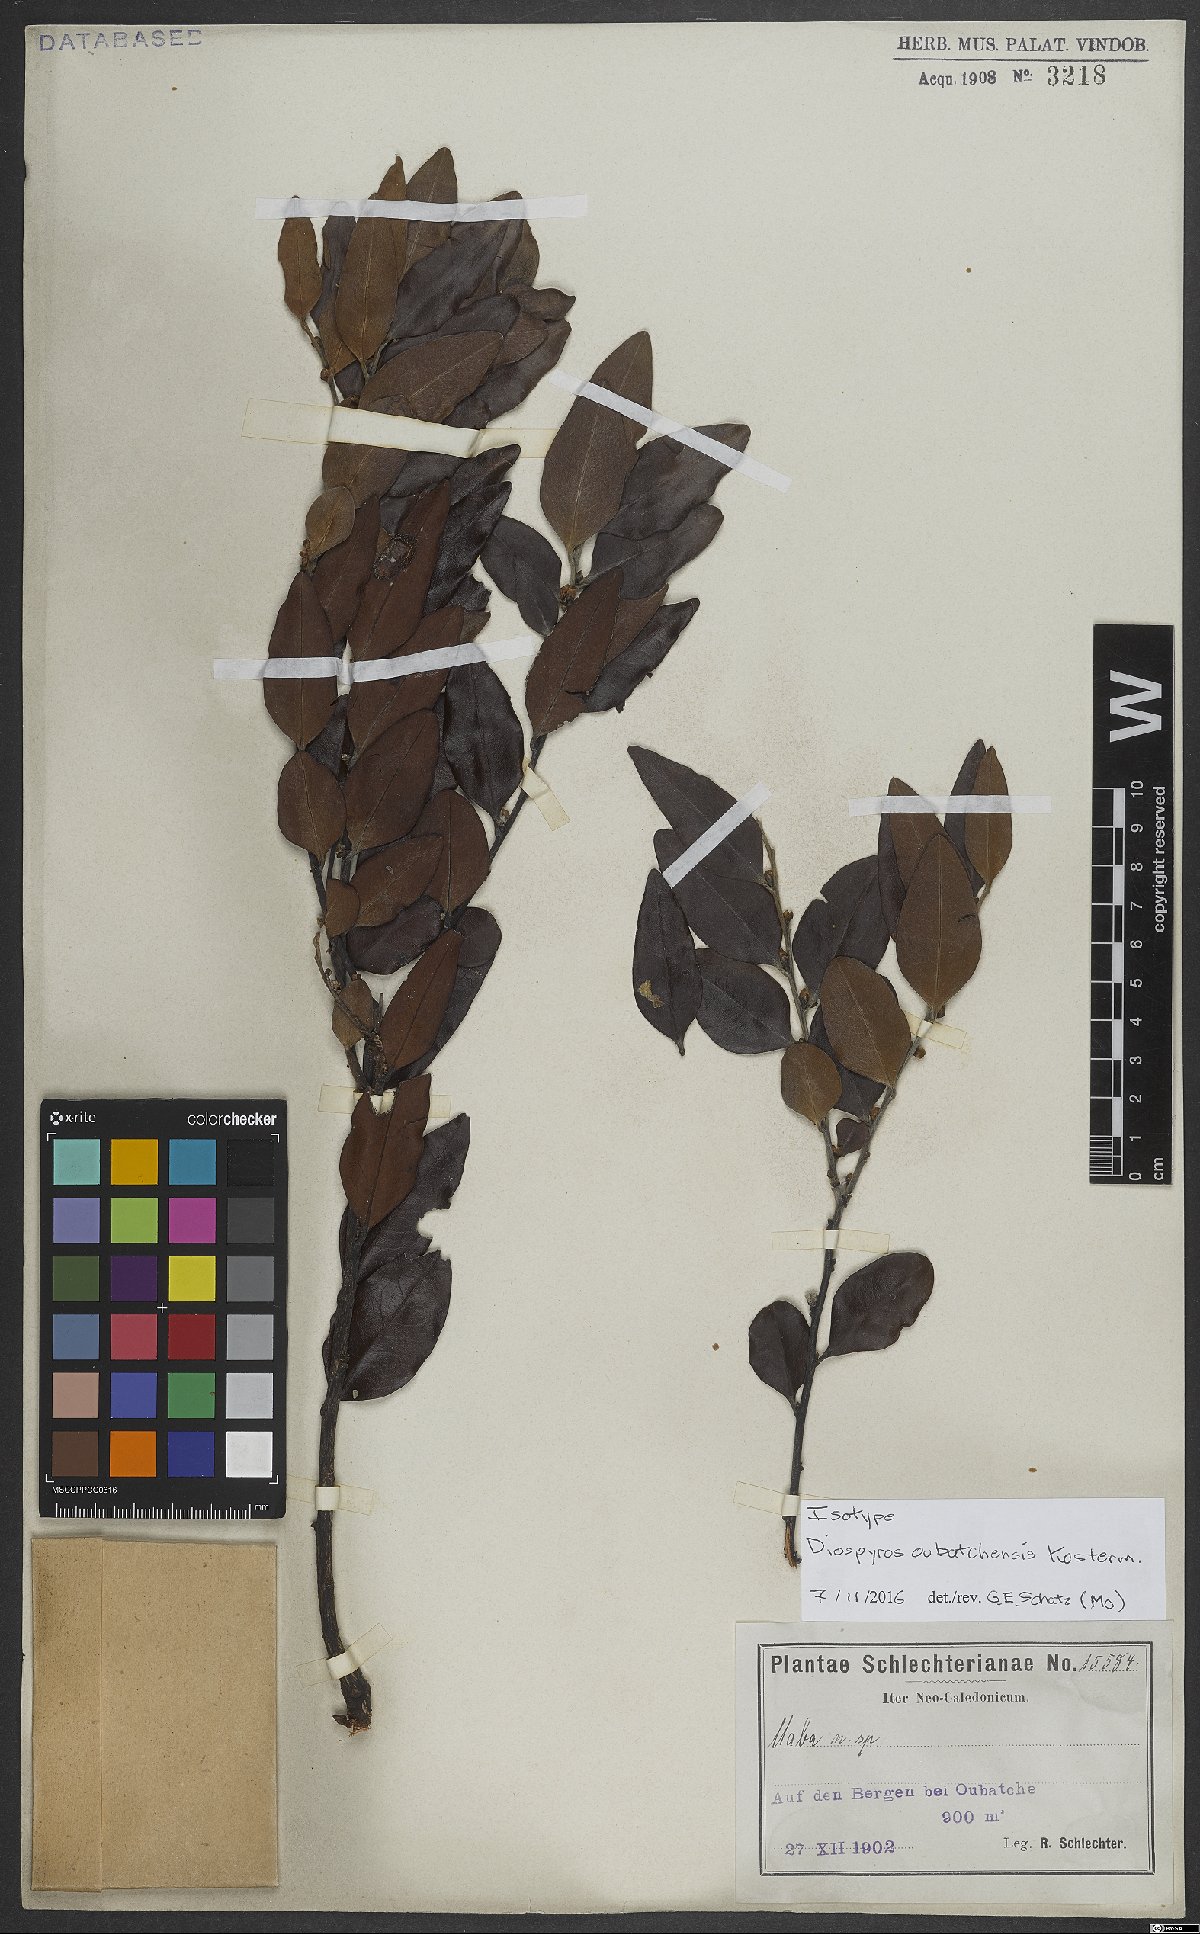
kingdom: Plantae
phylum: Tracheophyta
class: Magnoliopsida
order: Ericales
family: Ebenaceae
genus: Diospyros
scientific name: Diospyros oubatchensis
